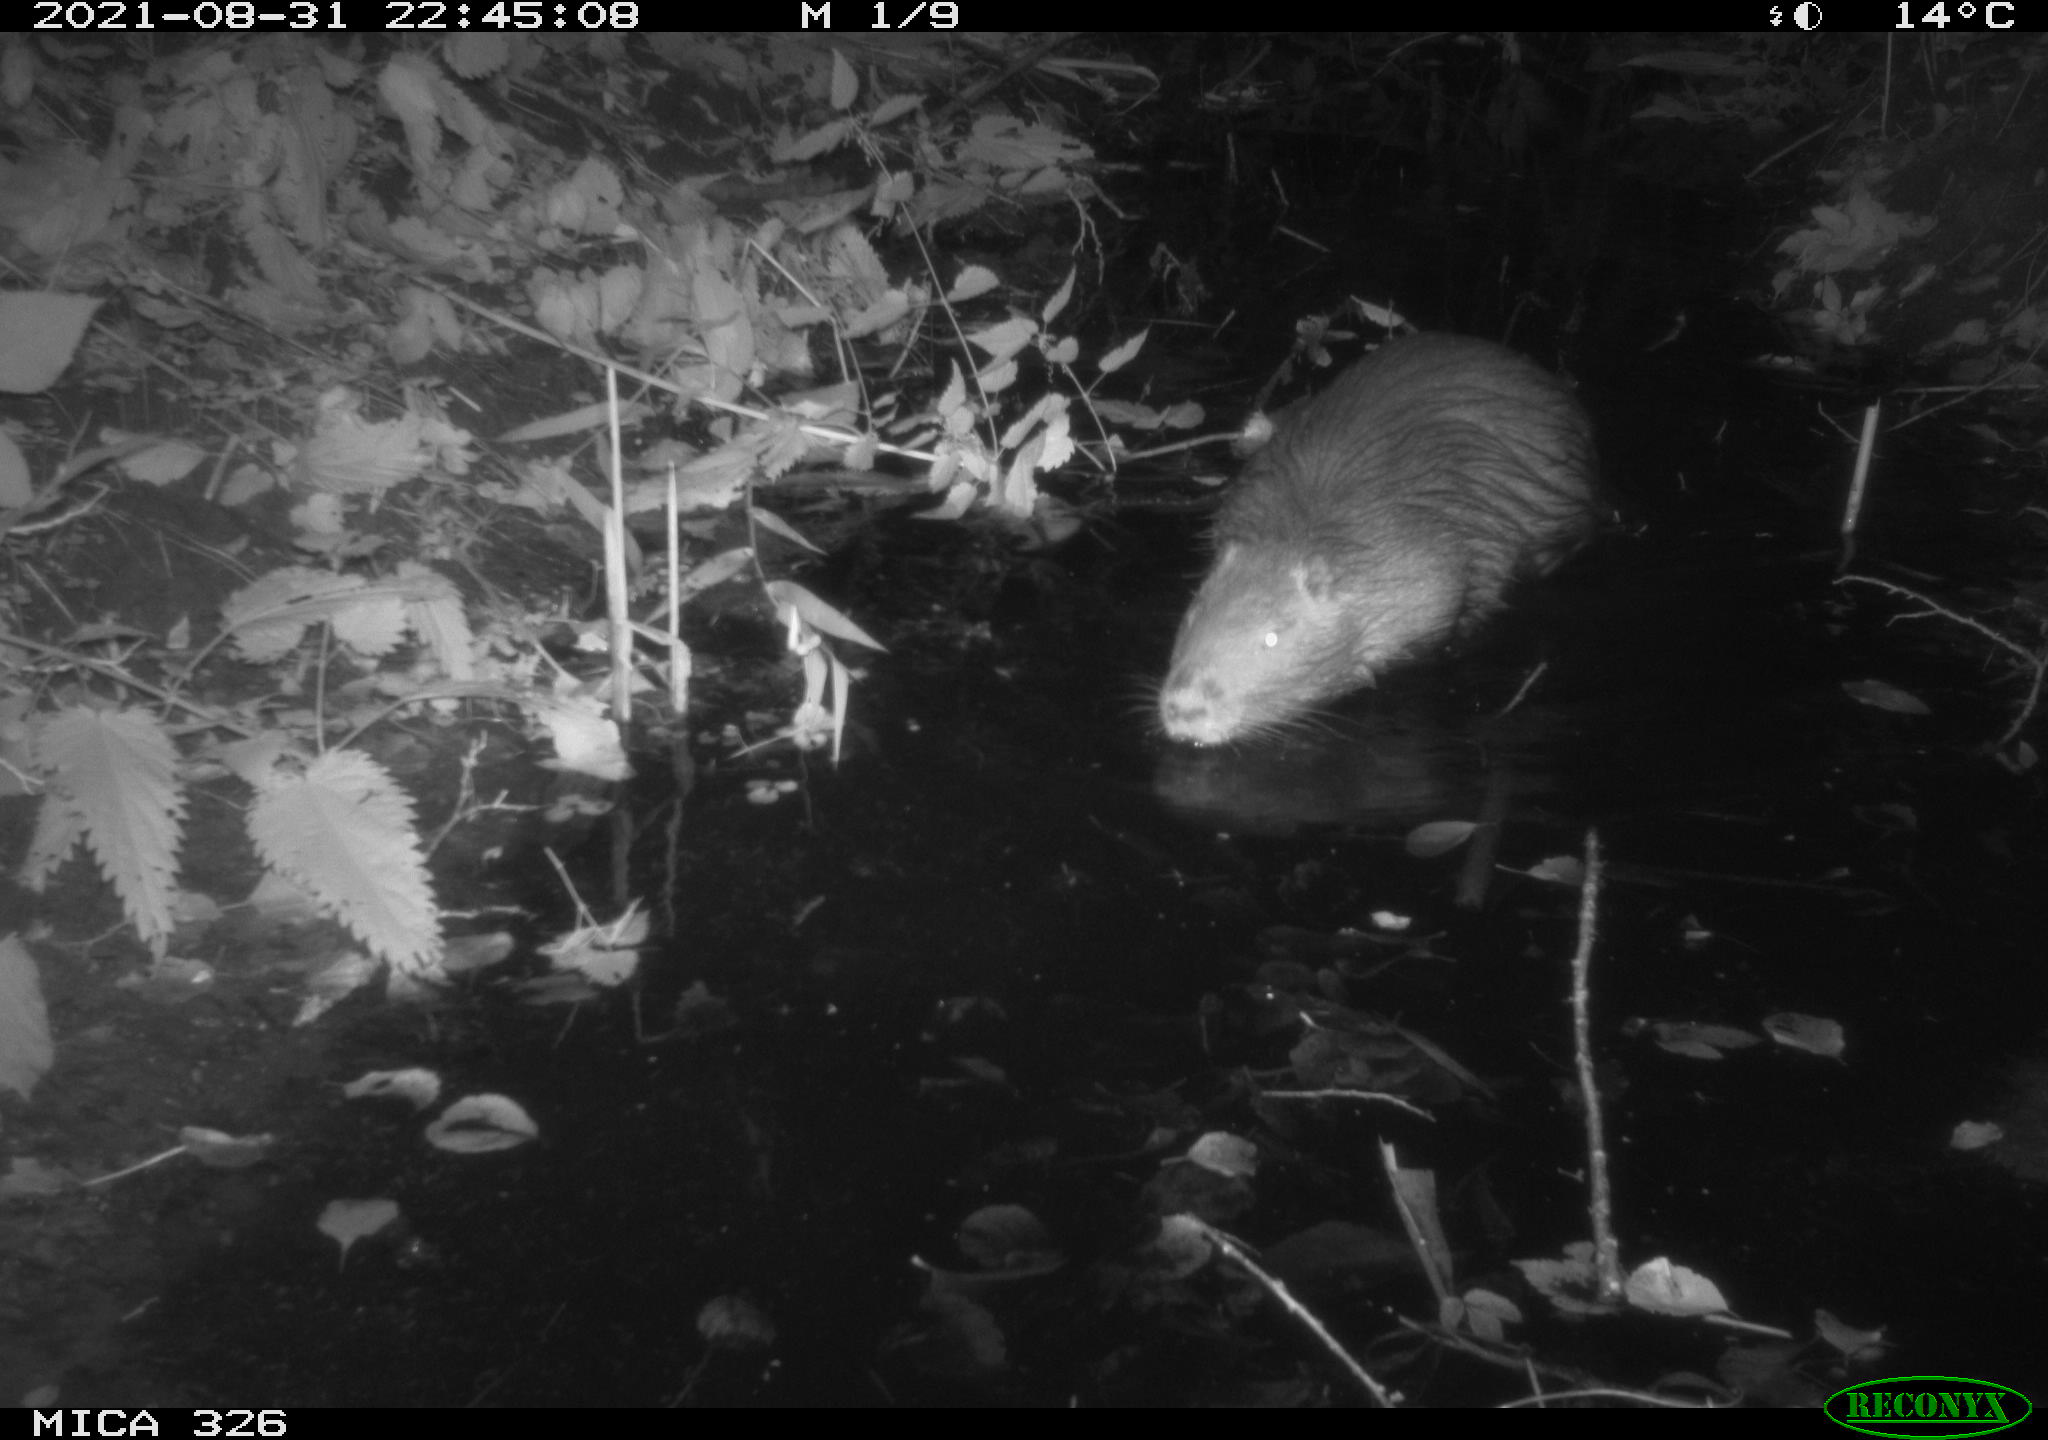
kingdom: Animalia
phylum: Chordata
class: Mammalia
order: Rodentia
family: Myocastoridae
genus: Myocastor
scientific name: Myocastor coypus
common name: Coypu
